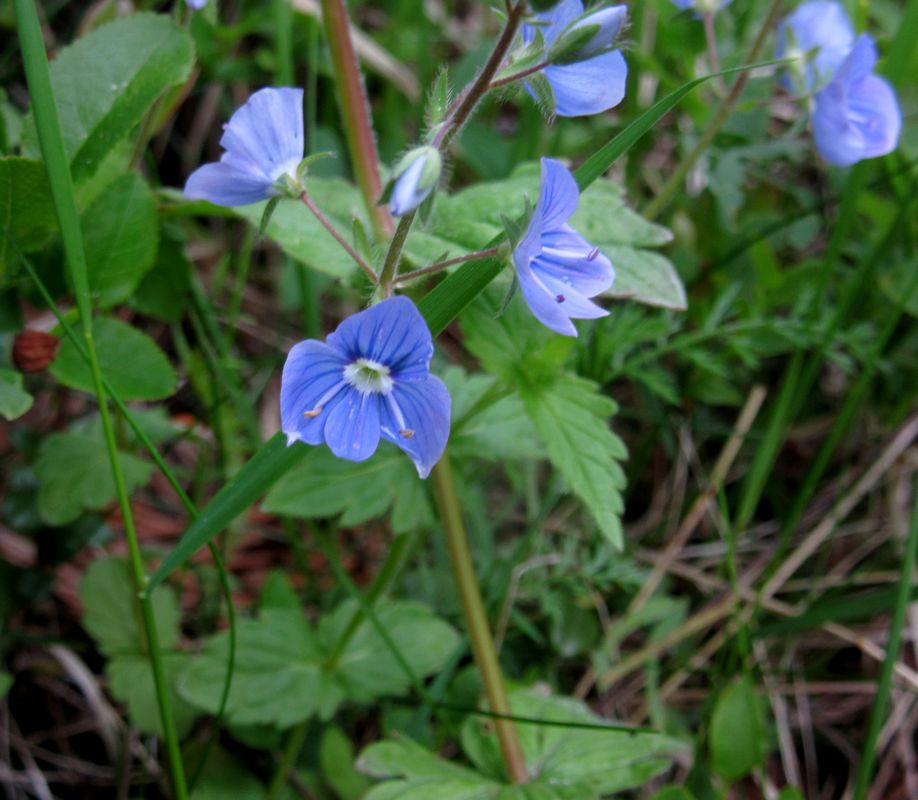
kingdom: Plantae
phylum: Tracheophyta
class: Magnoliopsida
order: Lamiales
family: Plantaginaceae
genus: Veronica
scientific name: Veronica chamaedrys
